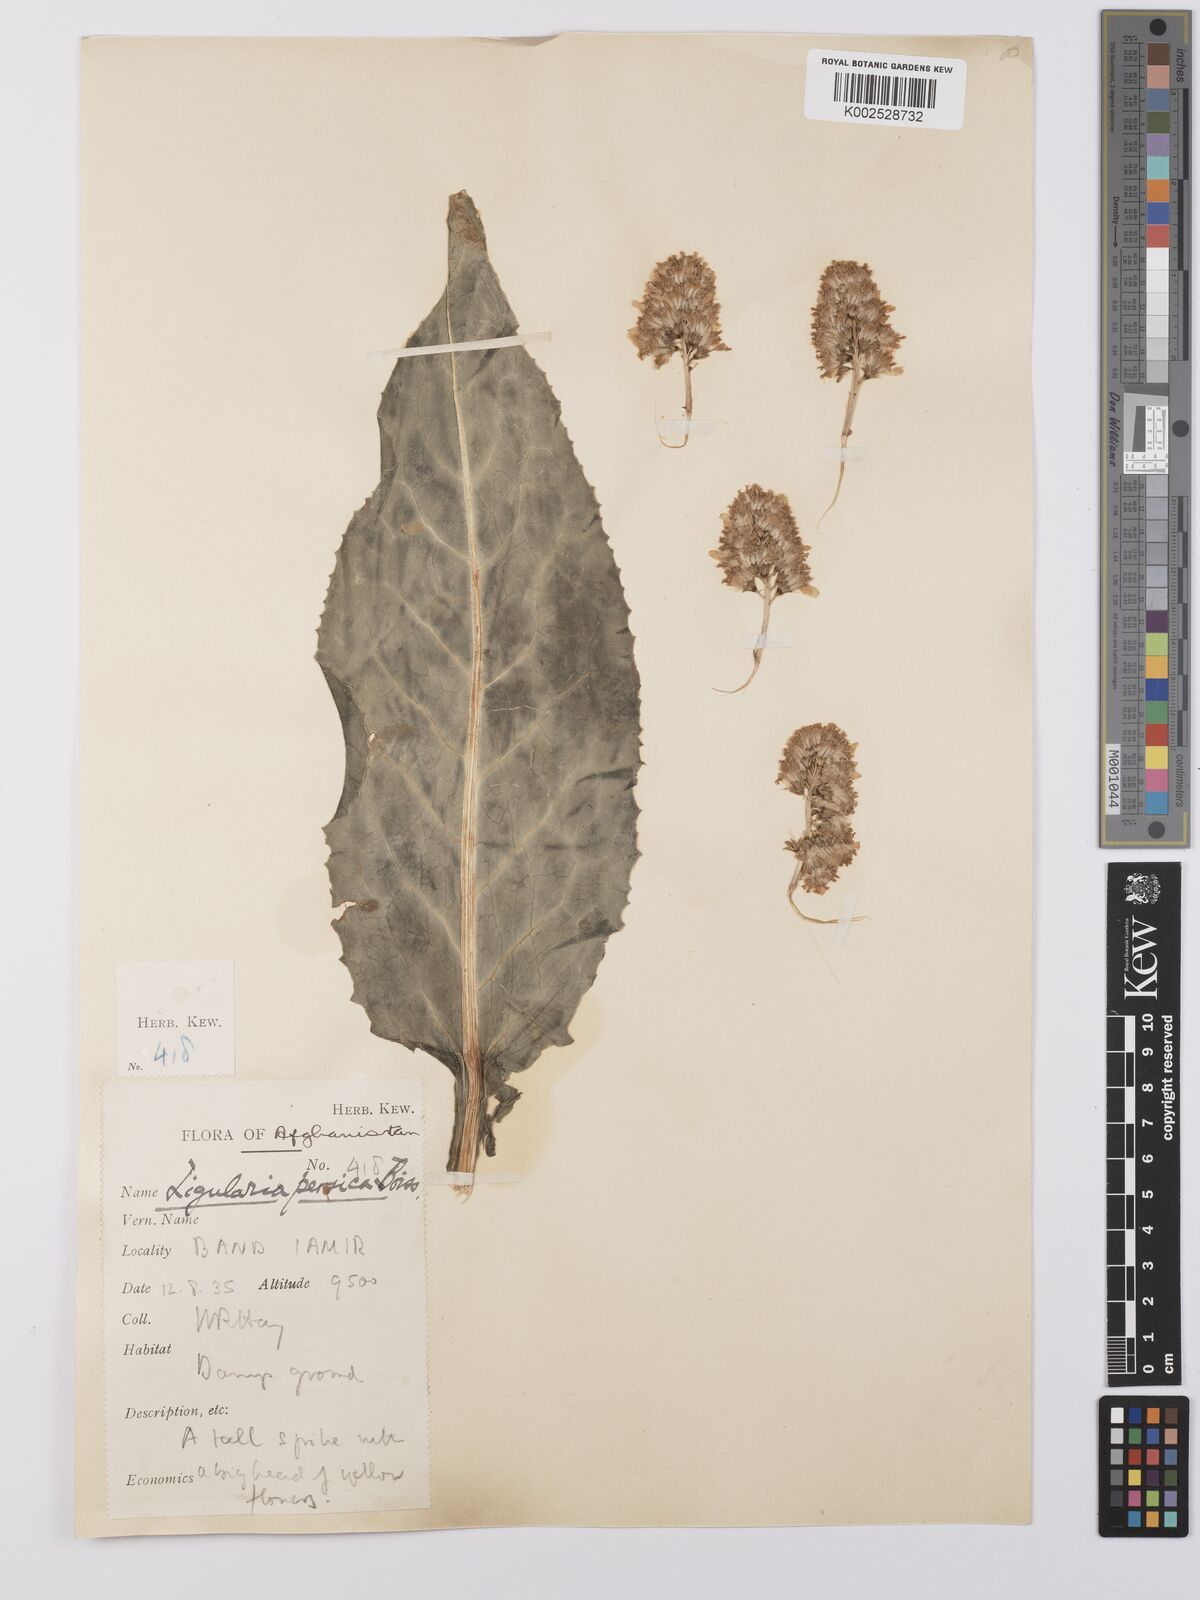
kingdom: Plantae
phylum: Tracheophyta
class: Magnoliopsida
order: Asterales
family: Asteraceae
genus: Ligularia
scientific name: Ligularia afghanica
